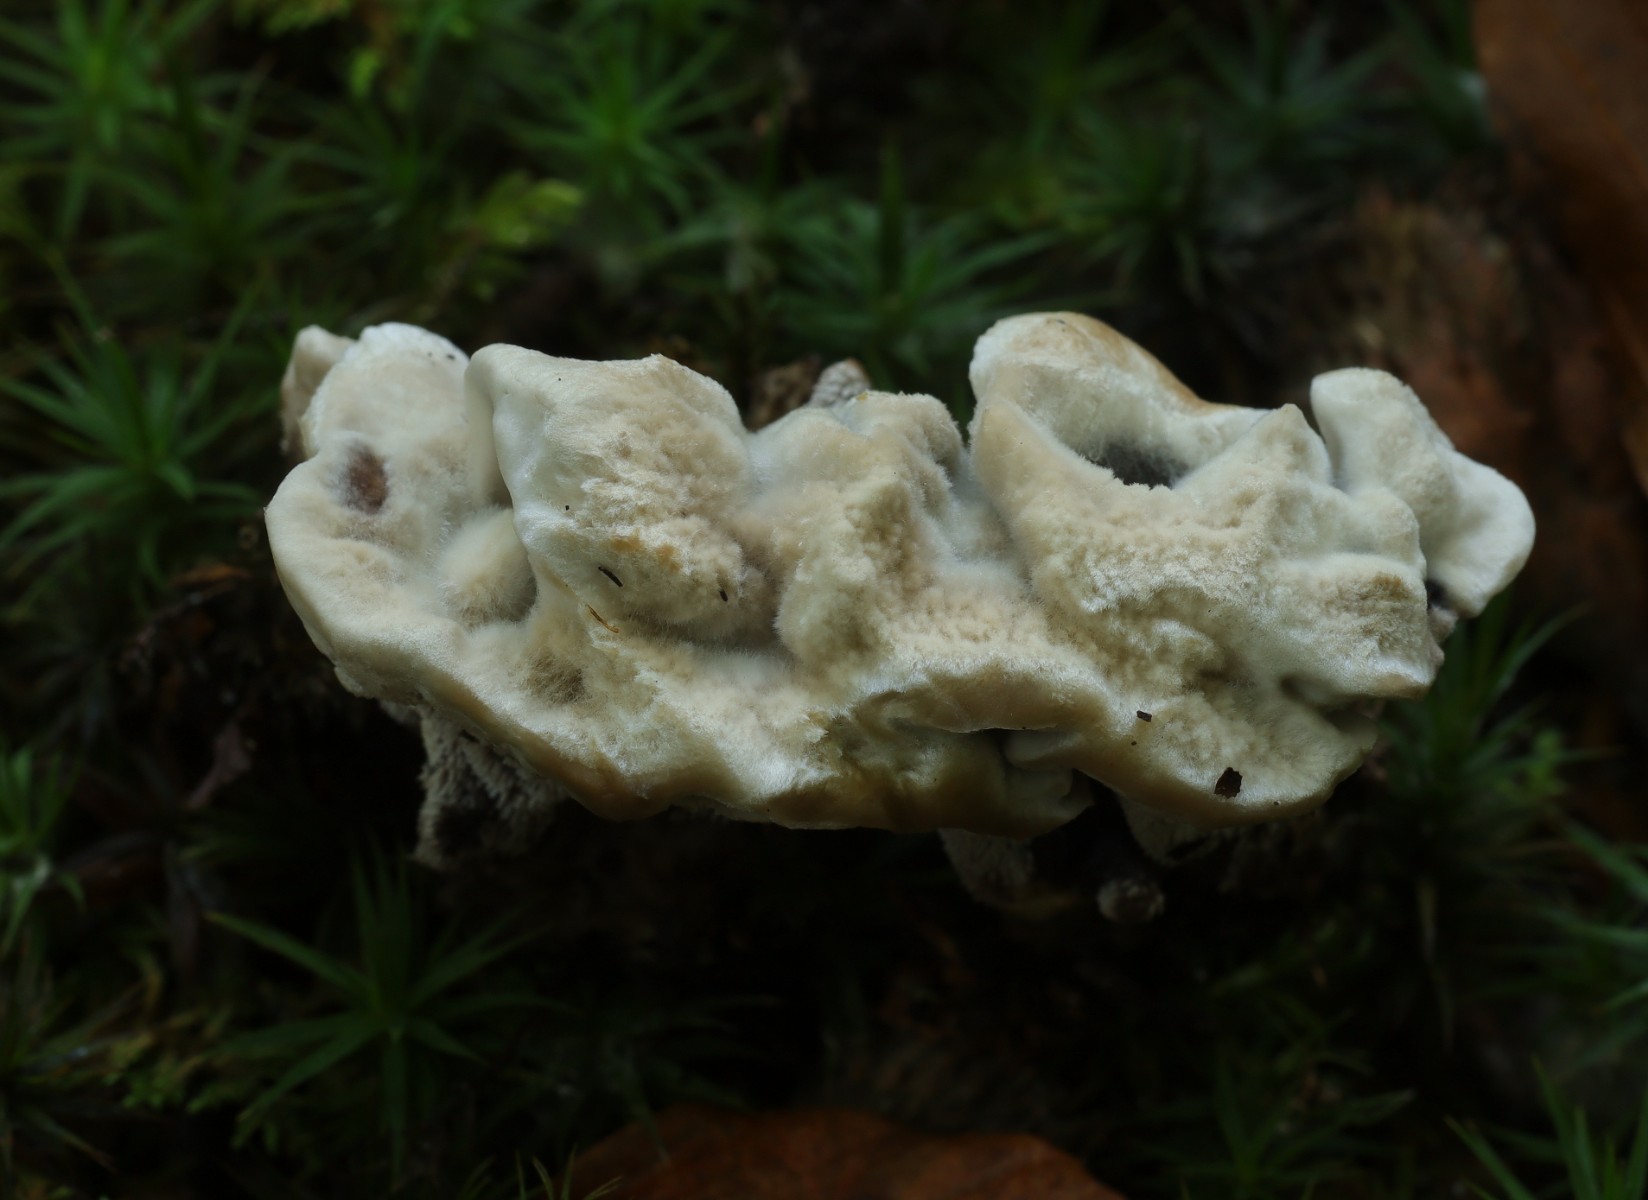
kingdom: Fungi
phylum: Basidiomycota
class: Agaricomycetes
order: Thelephorales
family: Thelephoraceae
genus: Phellodon
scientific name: Phellodon confluens
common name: pjaltet duftpigsvamp
